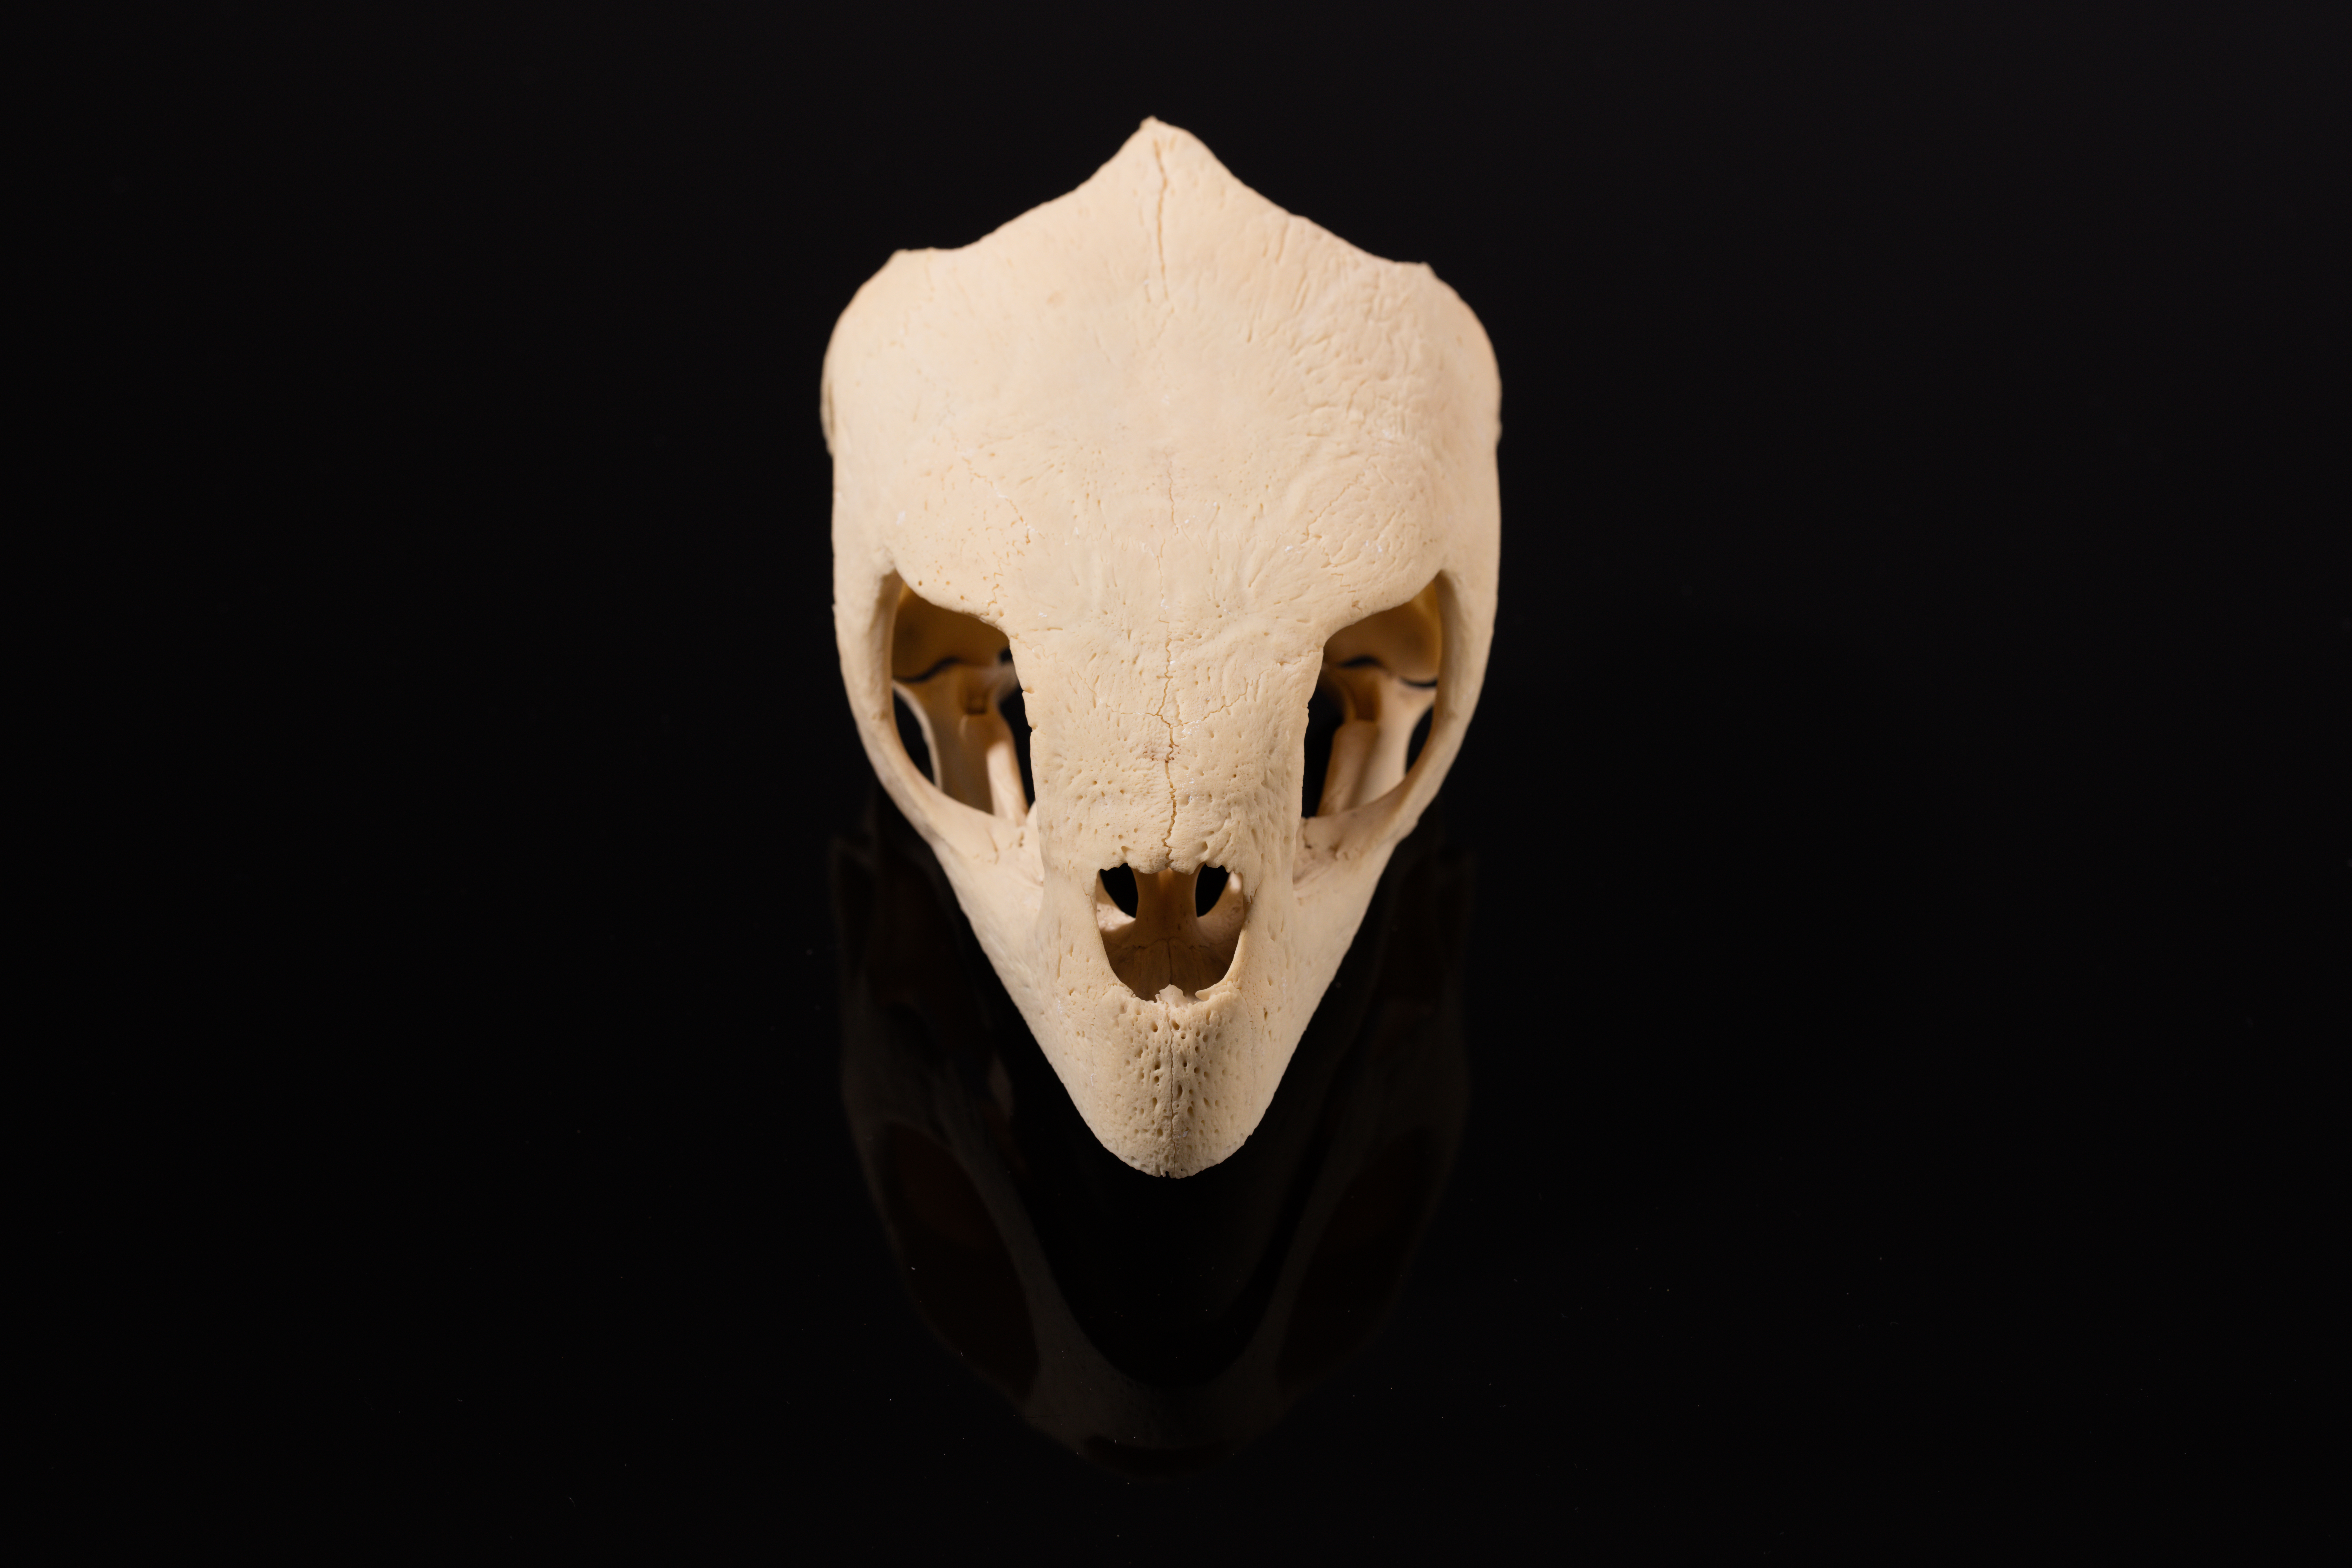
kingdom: Animalia
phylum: Chordata
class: Testudines
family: Cheloniidae
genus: Eretmochelys
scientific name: Eretmochelys imbricata
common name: Hawksbill turtle
